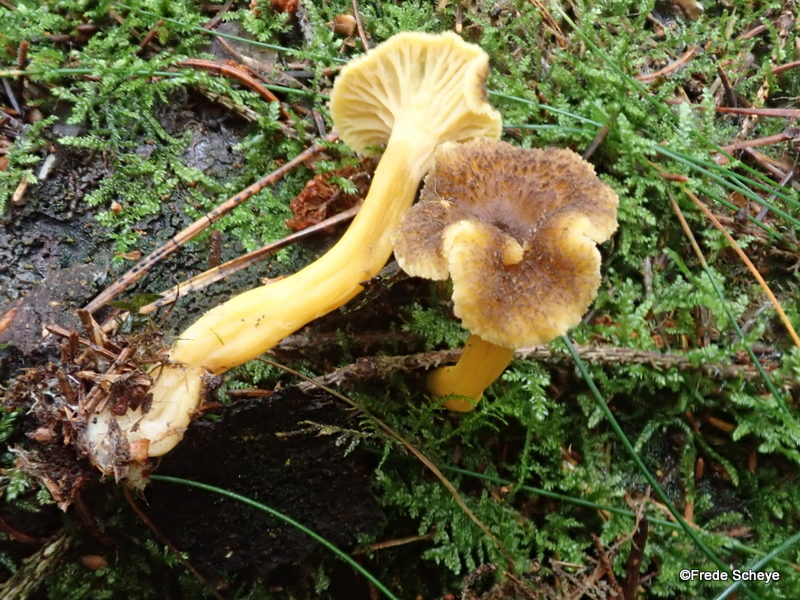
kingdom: Fungi
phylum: Basidiomycota
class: Agaricomycetes
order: Cantharellales
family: Hydnaceae
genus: Craterellus
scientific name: Craterellus tubaeformis
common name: tragt-kantarel
